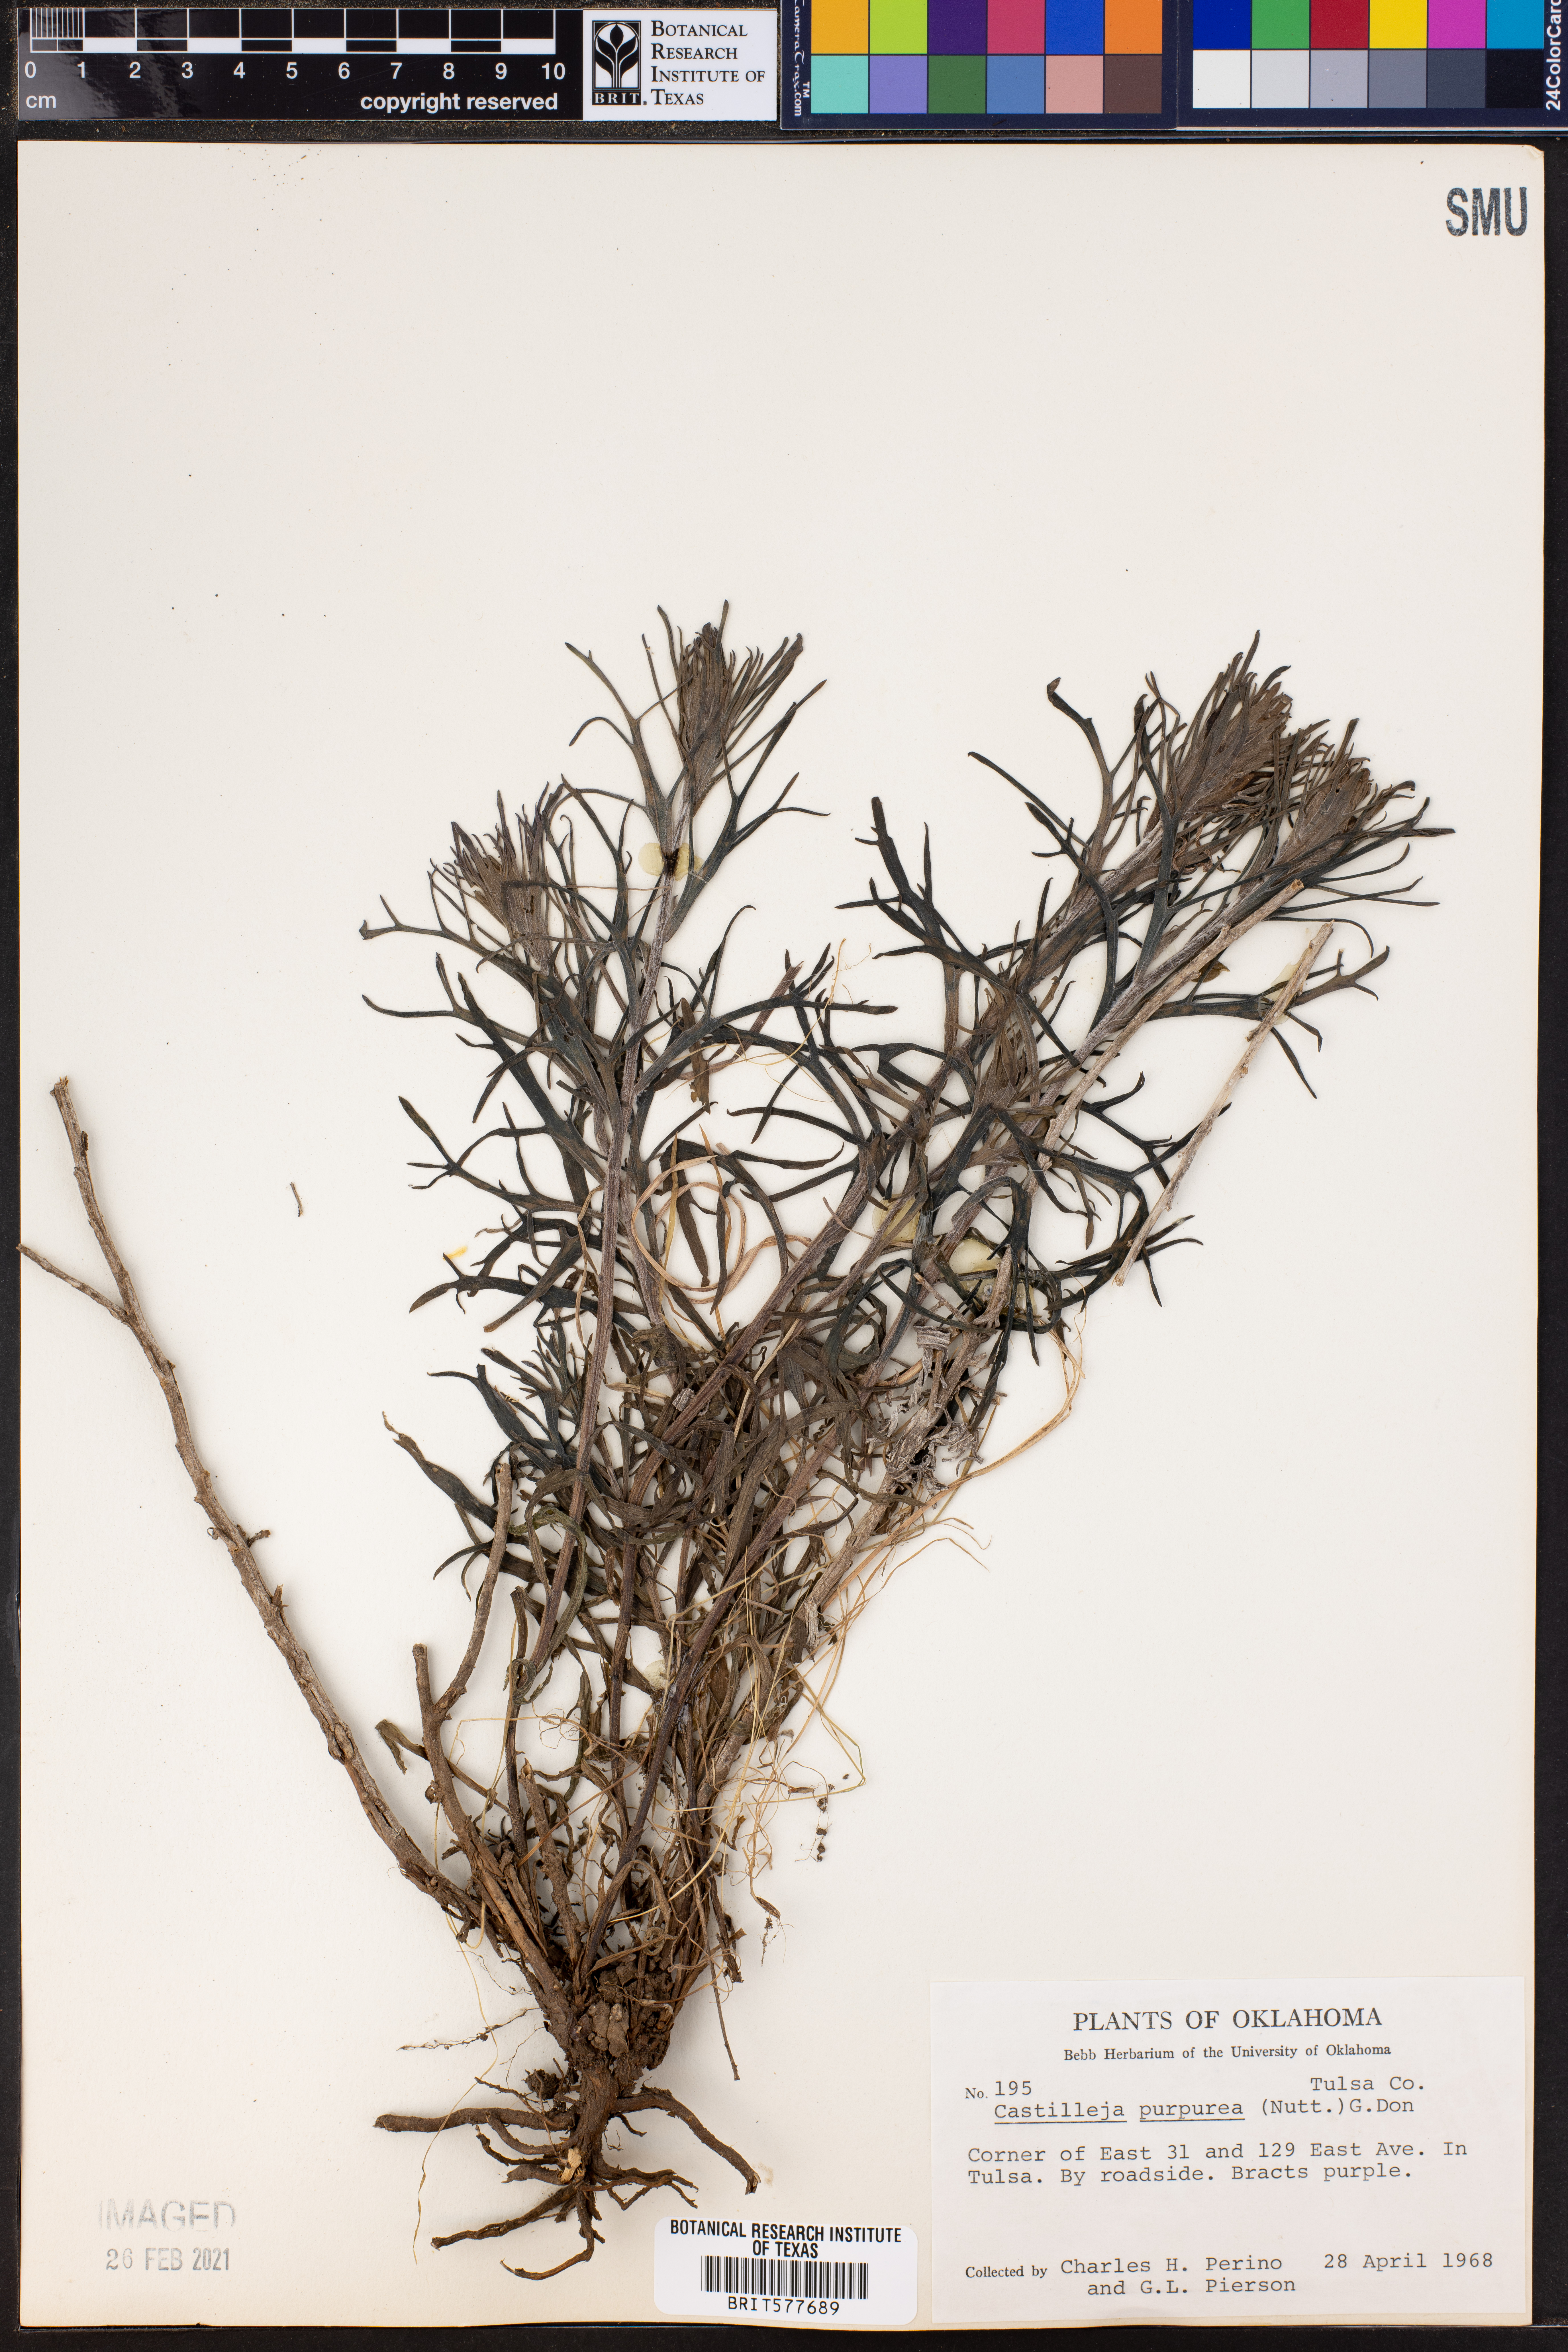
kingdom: Plantae
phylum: Tracheophyta
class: Magnoliopsida
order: Lamiales
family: Orobanchaceae
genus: Castilleja
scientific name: Castilleja purpurea
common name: Plains paintbrush
